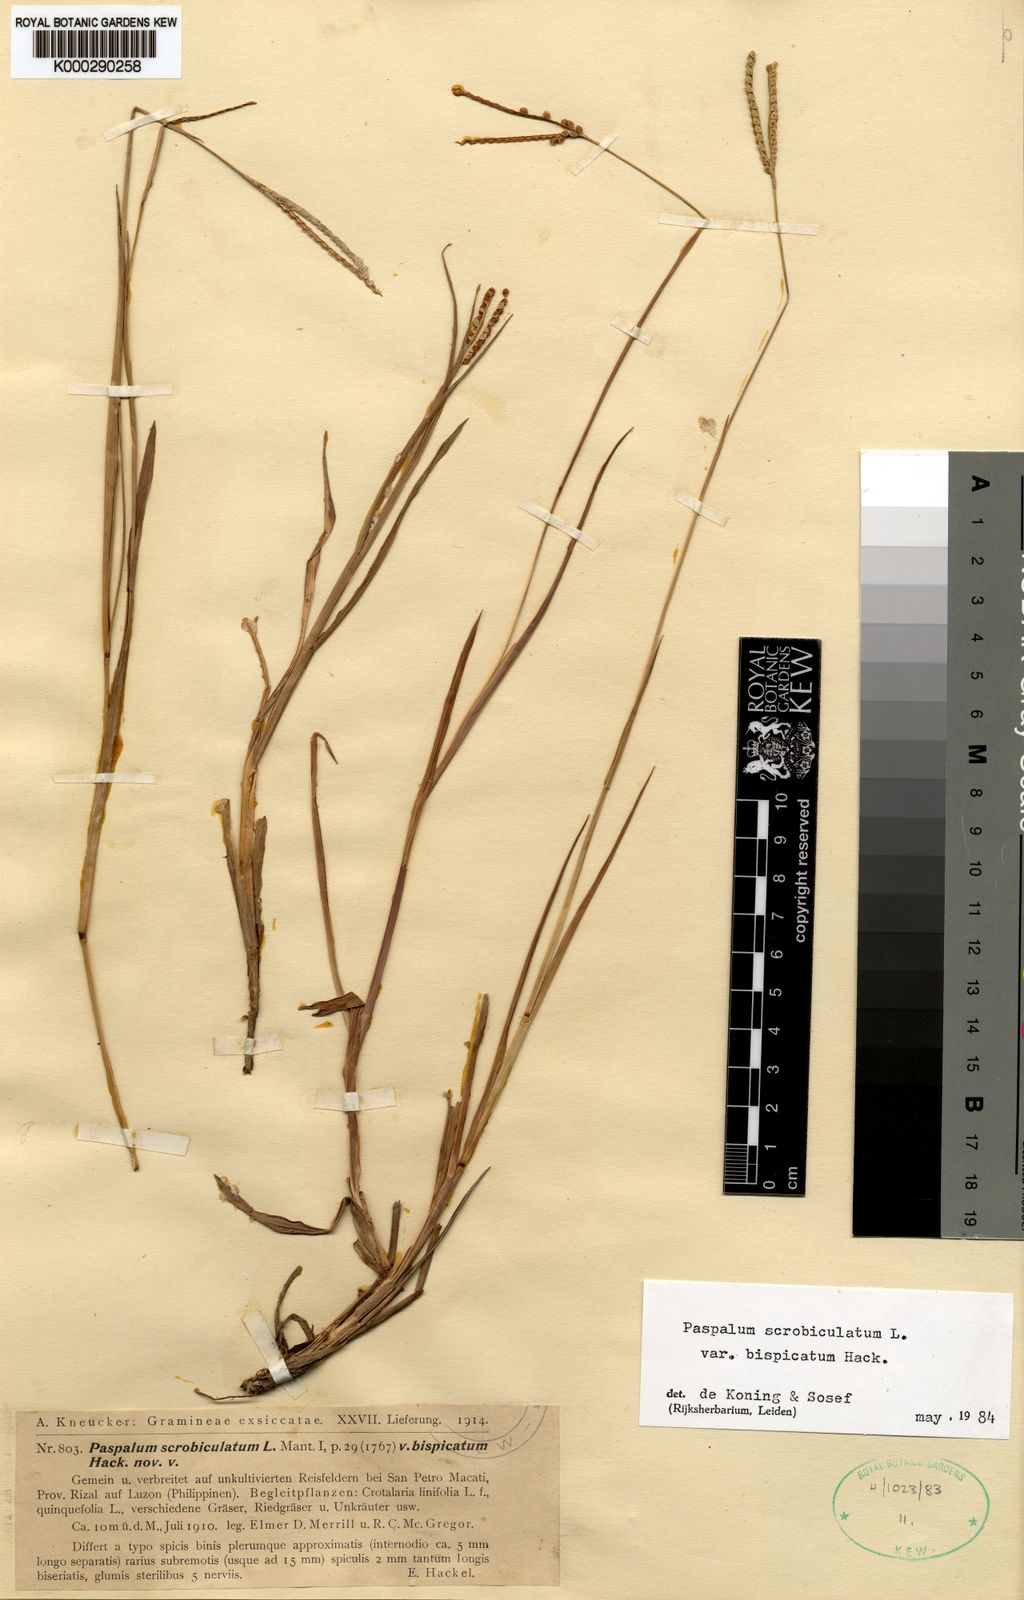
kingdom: Plantae
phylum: Tracheophyta
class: Liliopsida
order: Poales
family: Poaceae
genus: Paspalum
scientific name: Paspalum scrobiculatum
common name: Kodo millet
